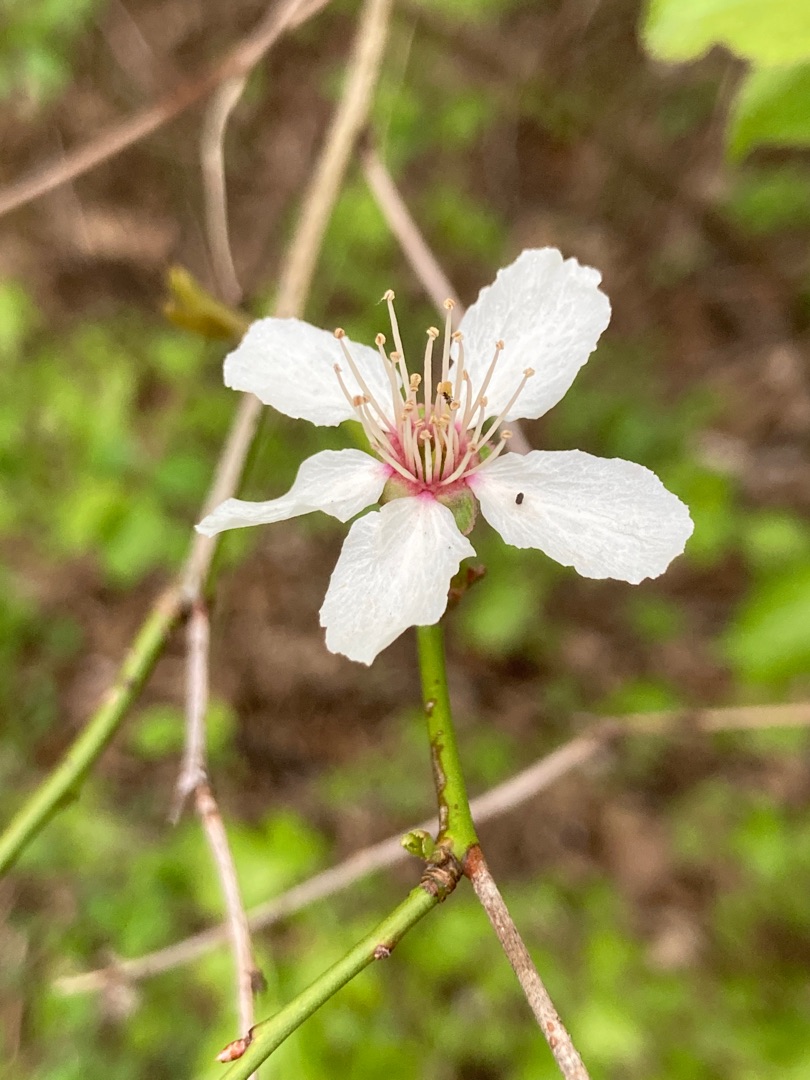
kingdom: Plantae
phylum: Tracheophyta
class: Magnoliopsida
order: Rosales
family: Rosaceae
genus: Prunus
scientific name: Prunus cerasifera
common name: Mirabel
